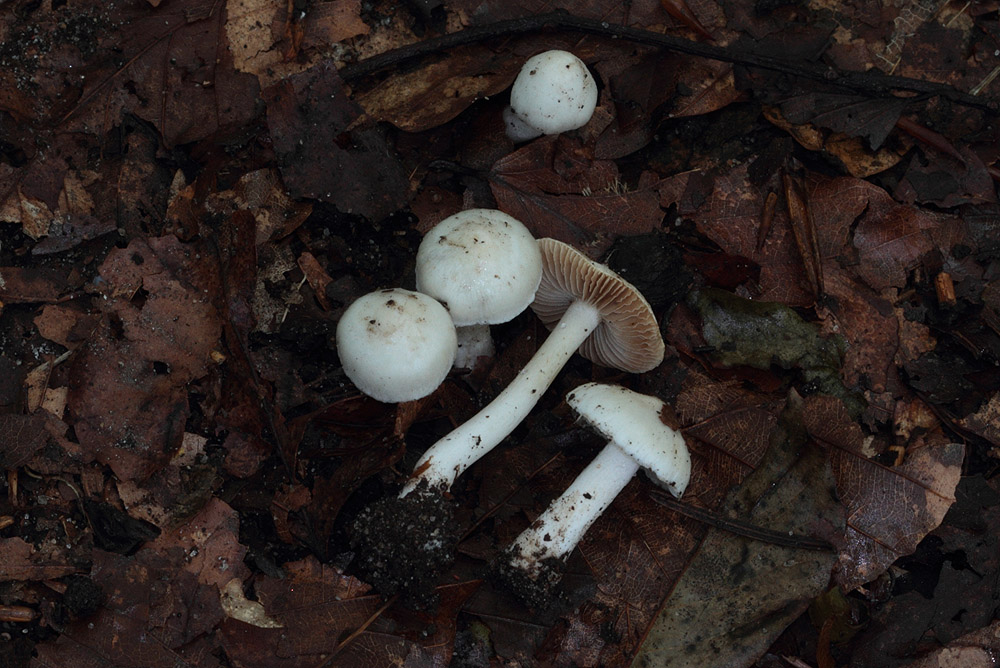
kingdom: Fungi
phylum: Basidiomycota
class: Agaricomycetes
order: Agaricales
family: Inocybaceae
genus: Inocybe
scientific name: Inocybe
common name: almindelig trævlhat
